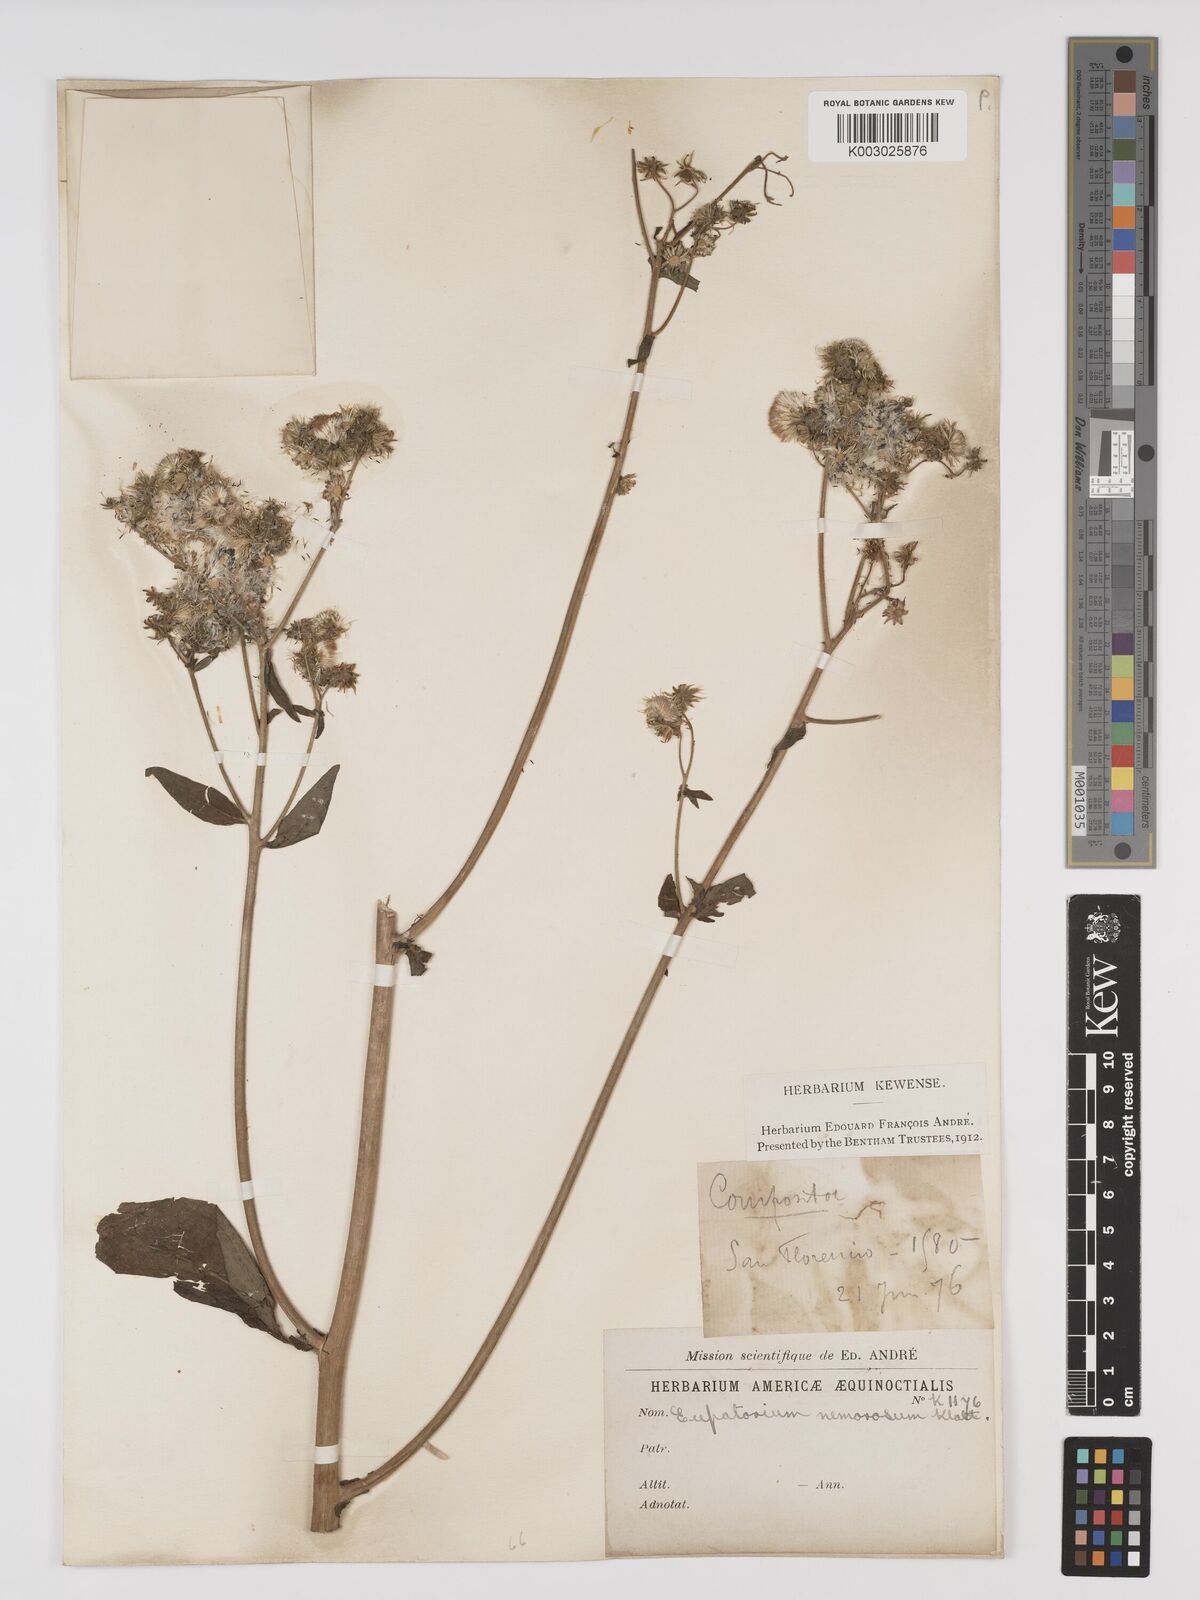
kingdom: Plantae
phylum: Tracheophyta
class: Magnoliopsida
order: Asterales
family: Asteraceae
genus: Polyanthina
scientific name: Polyanthina nemorosa
